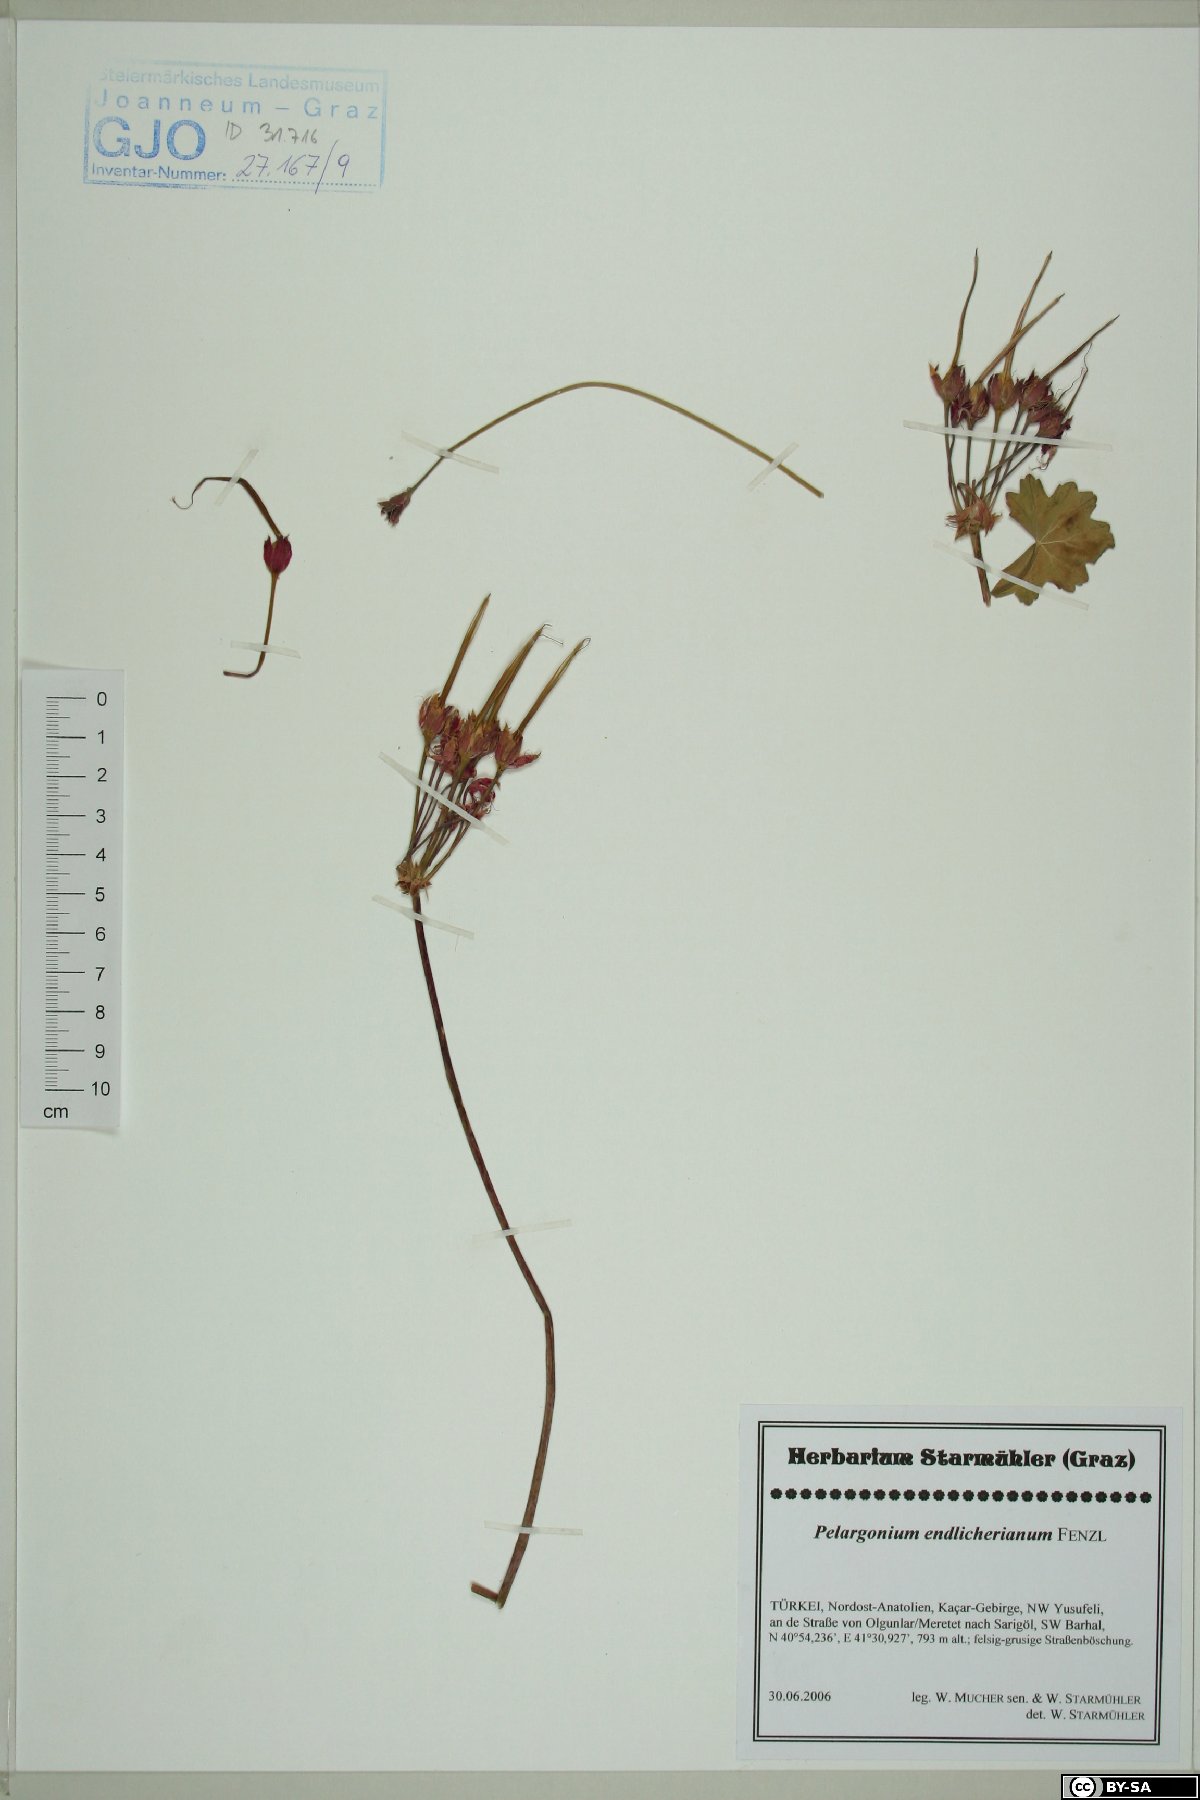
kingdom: Plantae
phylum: Tracheophyta
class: Magnoliopsida
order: Geraniales
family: Geraniaceae
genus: Pelargonium
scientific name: Pelargonium endlicherianum
